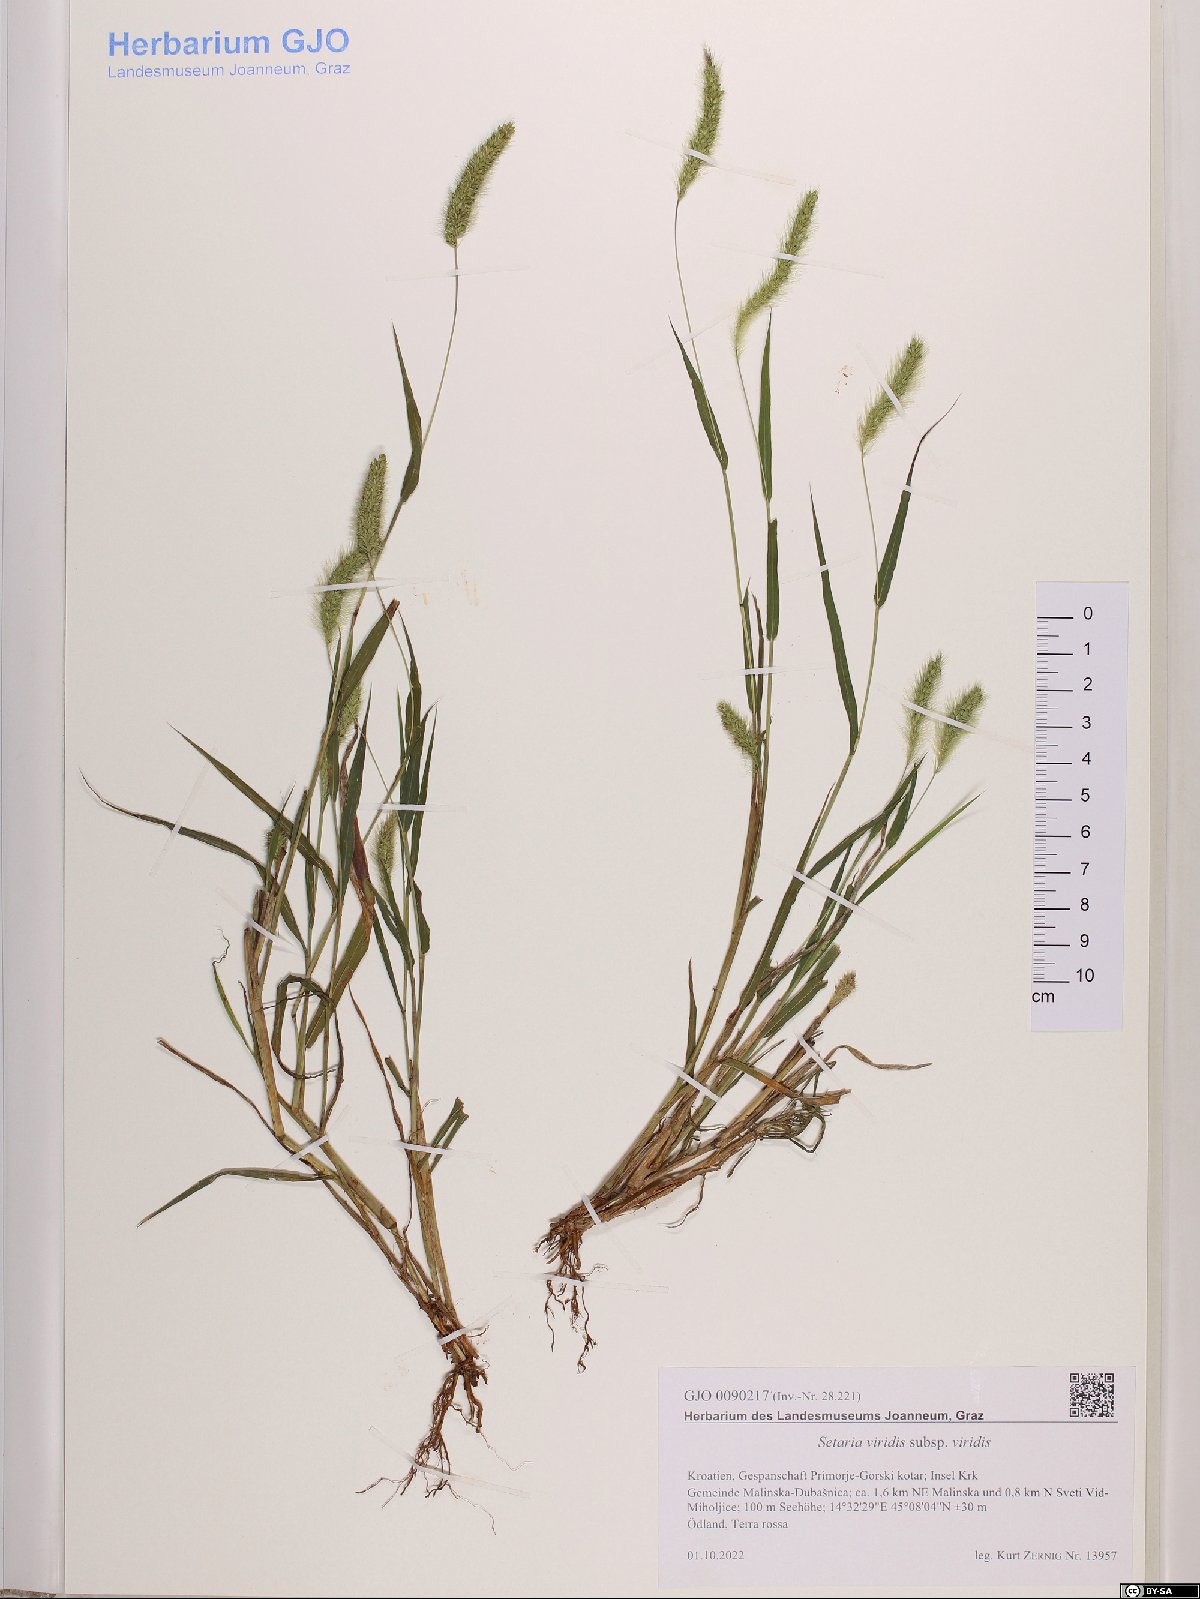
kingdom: Plantae
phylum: Tracheophyta
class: Liliopsida
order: Poales
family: Poaceae
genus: Setaria
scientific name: Setaria viridis
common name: Green bristlegrass
